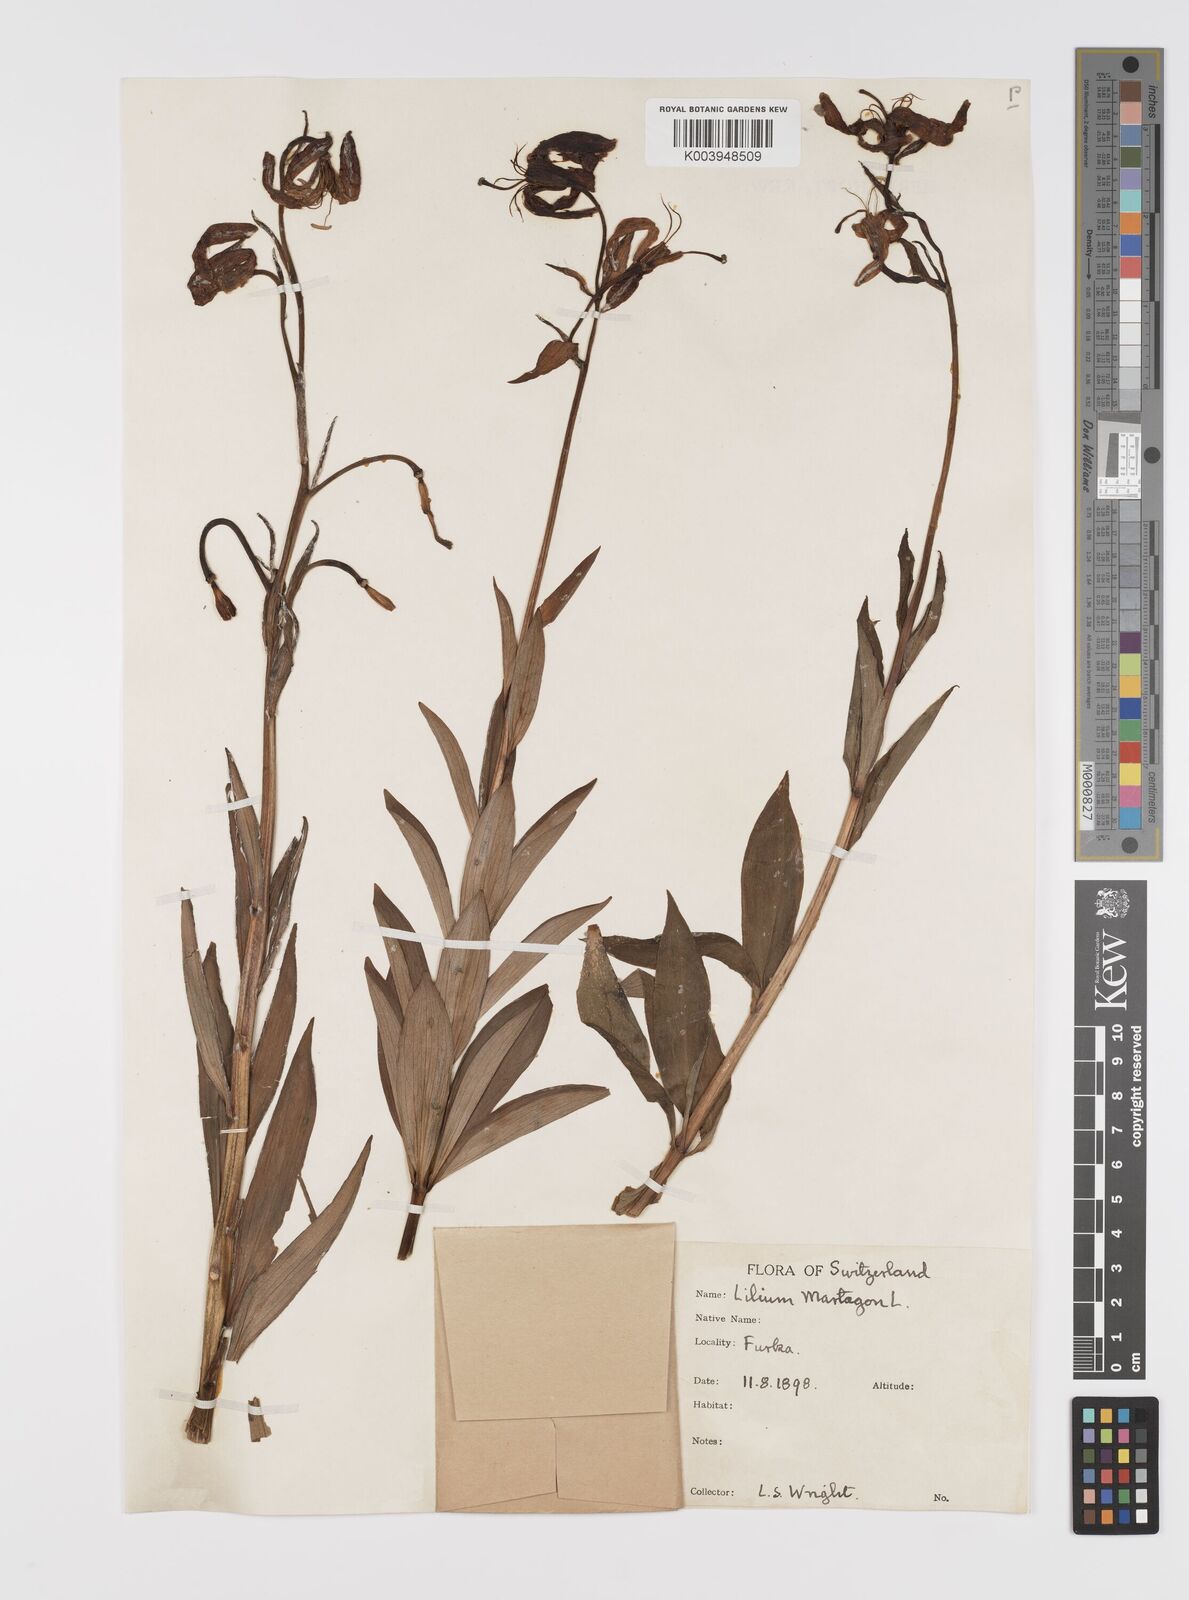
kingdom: Plantae
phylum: Tracheophyta
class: Liliopsida
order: Liliales
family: Liliaceae
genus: Lilium
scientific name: Lilium martagon
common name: Martagon lily
